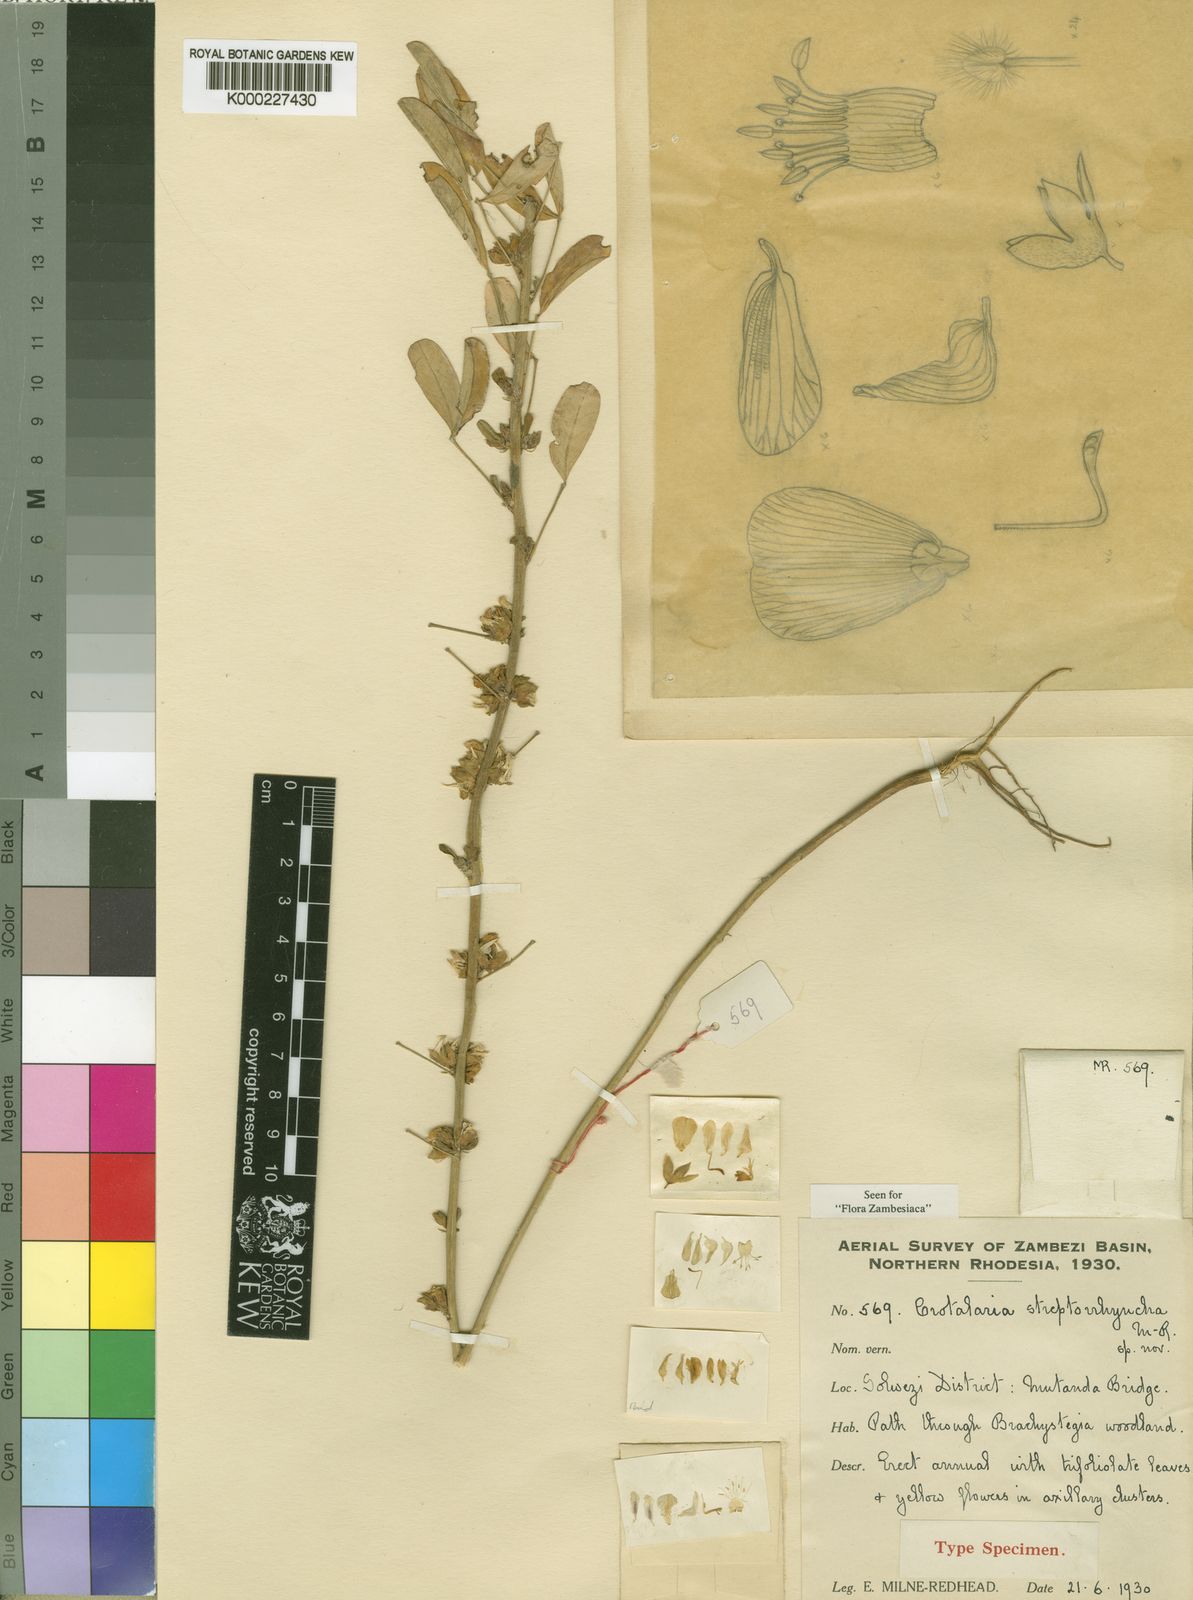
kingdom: Plantae
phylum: Tracheophyta
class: Magnoliopsida
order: Fabales
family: Fabaceae
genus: Crotalaria
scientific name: Crotalaria streptorrhyncha
